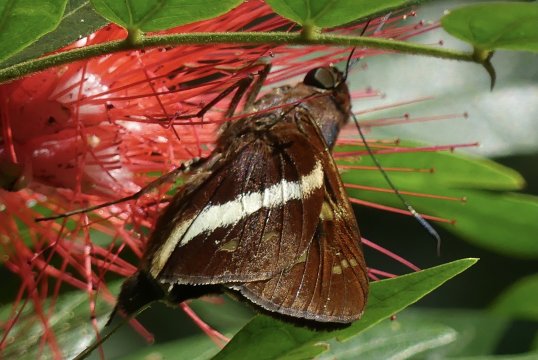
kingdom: Animalia
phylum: Arthropoda
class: Insecta
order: Lepidoptera
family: Hesperiidae
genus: Xeniades
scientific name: Xeniades chalestra
